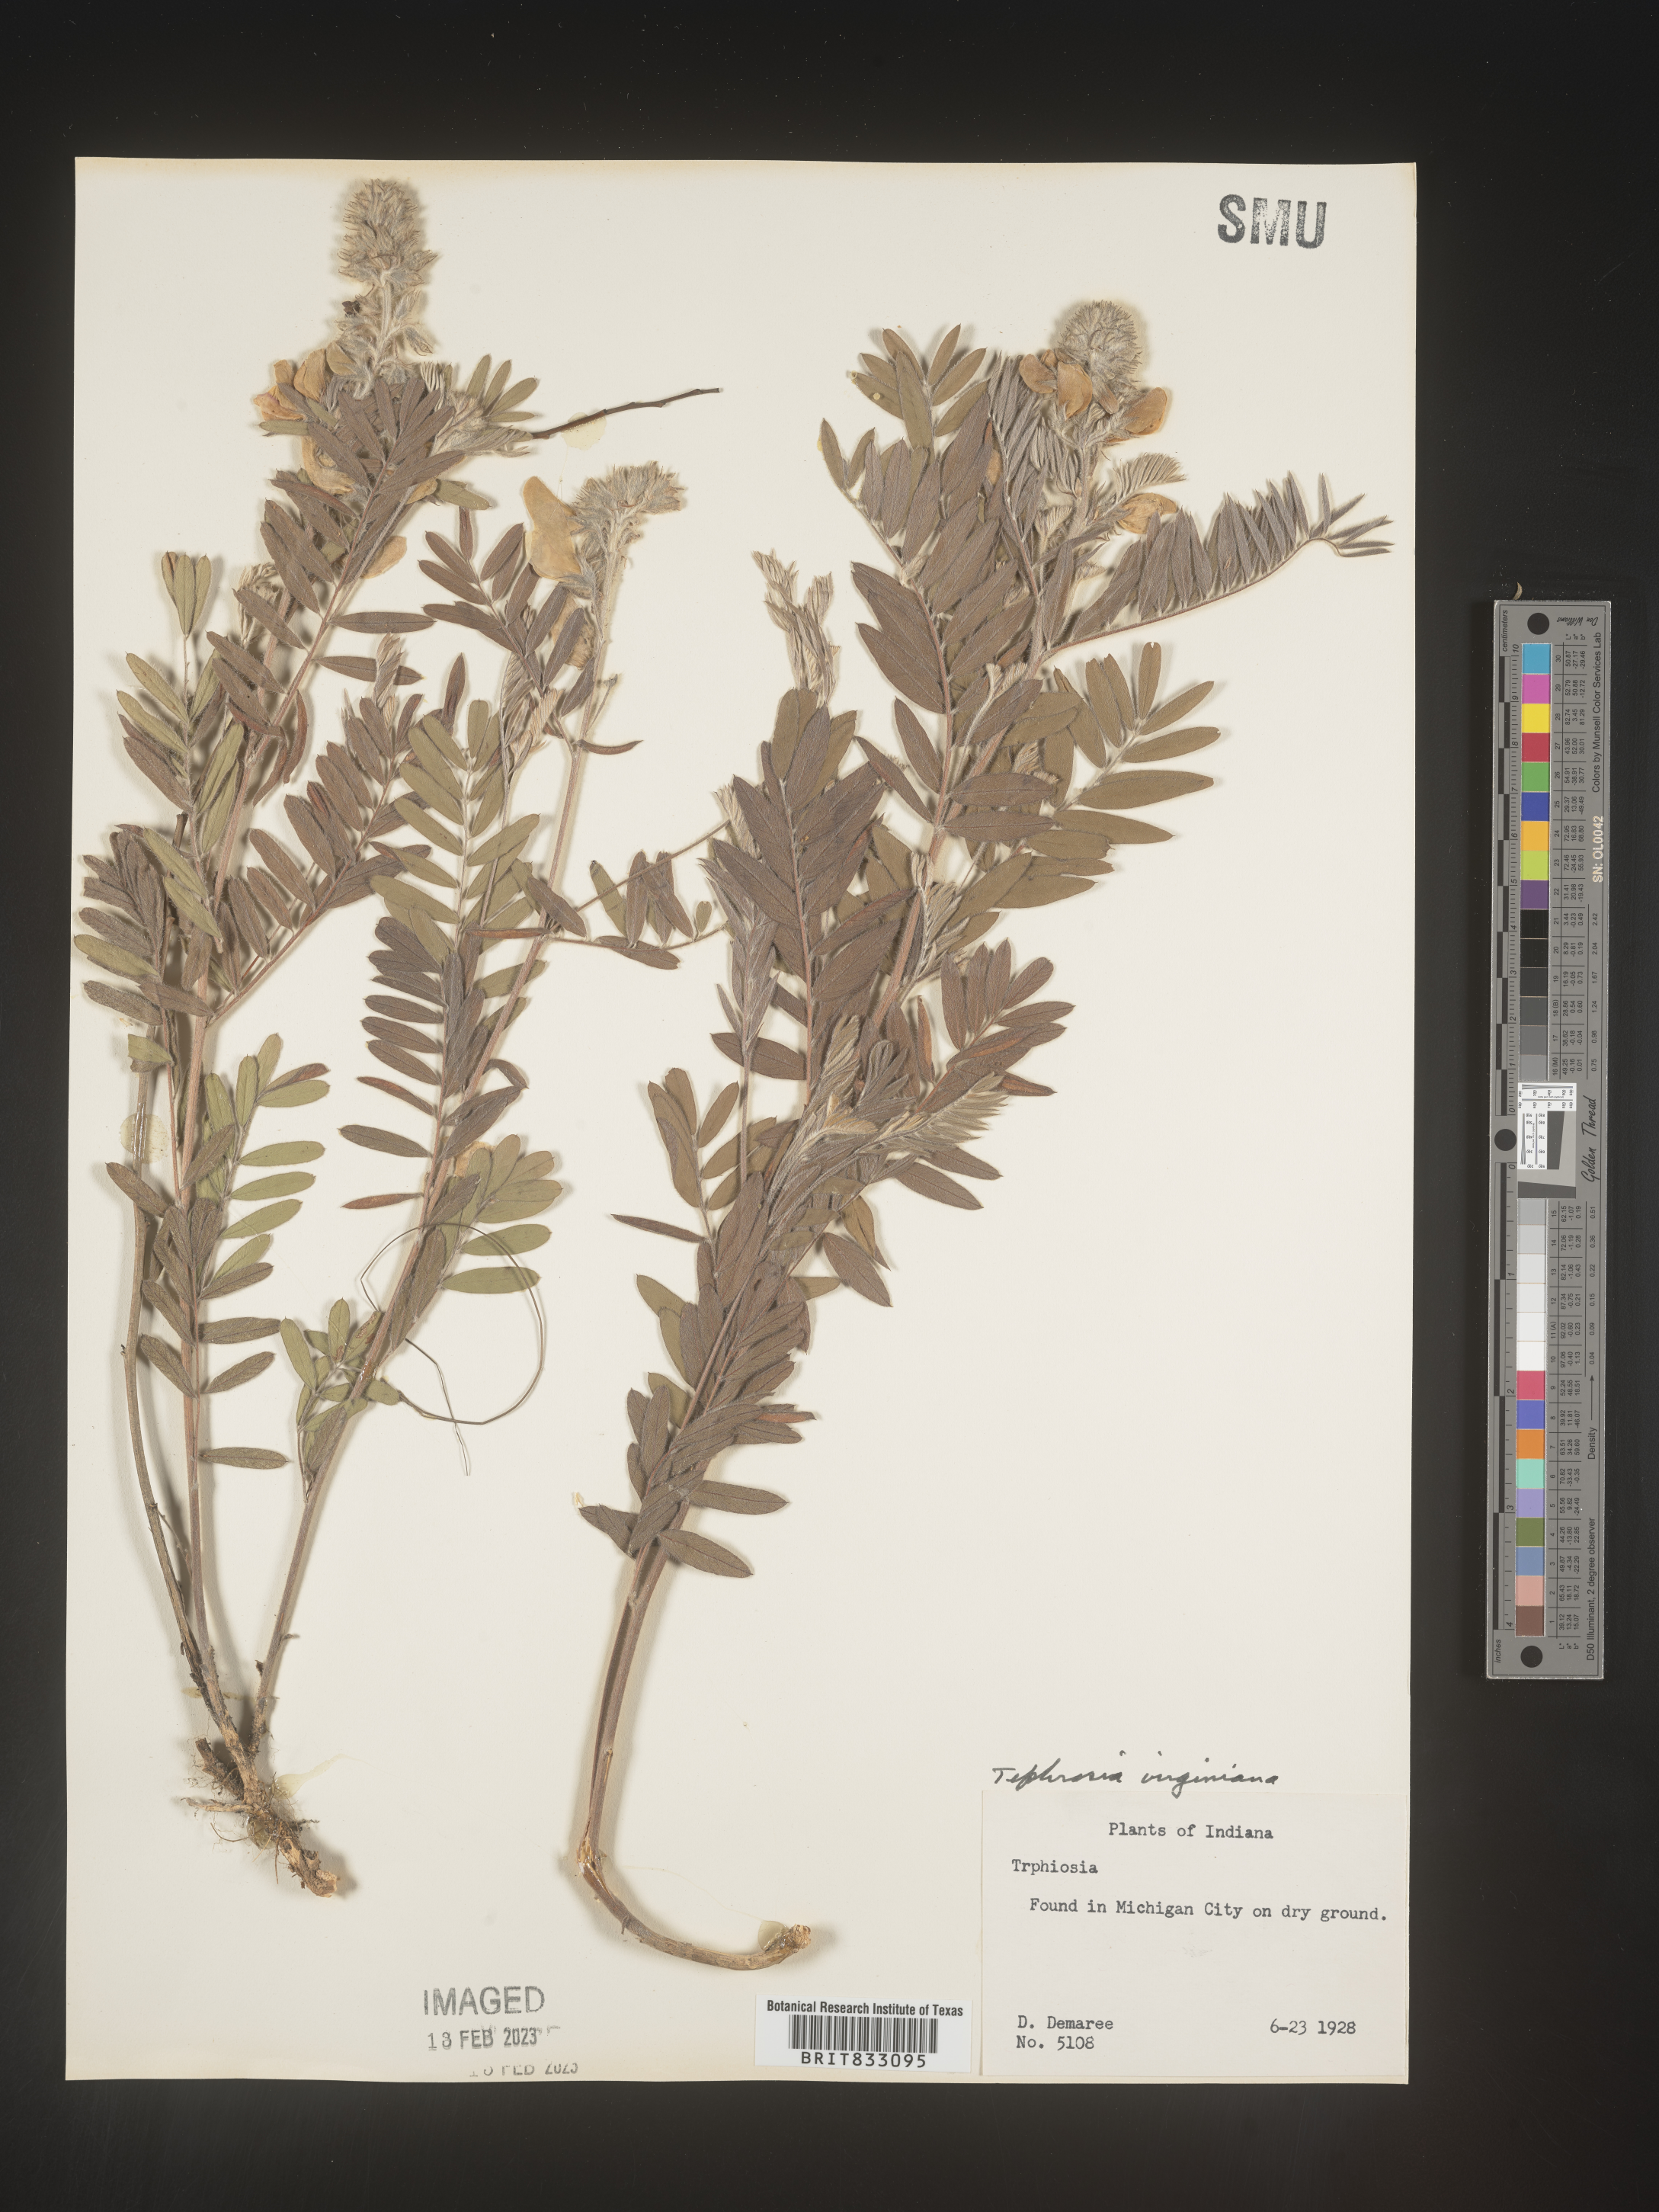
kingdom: Plantae
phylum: Tracheophyta
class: Magnoliopsida
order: Fabales
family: Fabaceae
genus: Tephrosia
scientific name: Tephrosia virginiana
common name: Rabbit-pea
